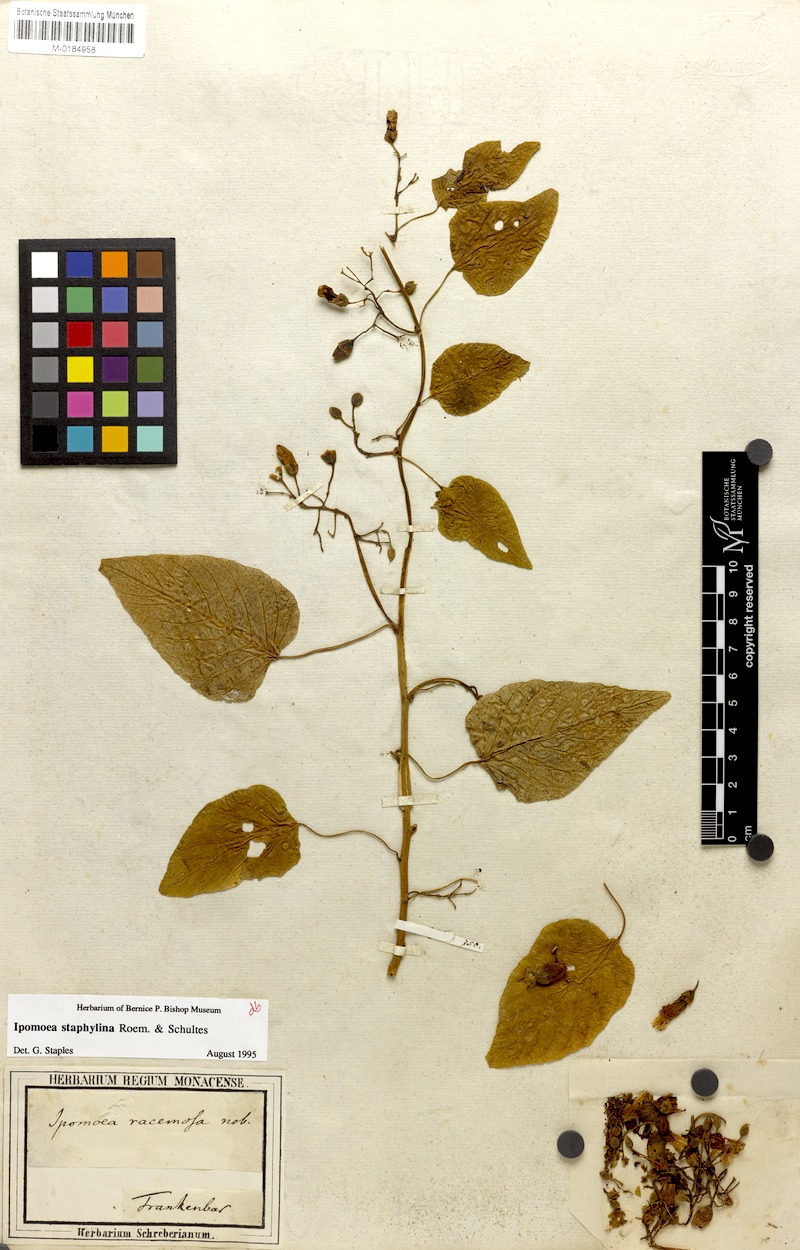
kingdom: Plantae
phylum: Tracheophyta
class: Magnoliopsida
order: Solanales
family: Convolvulaceae
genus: Ipomoea
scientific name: Ipomoea staphylina
